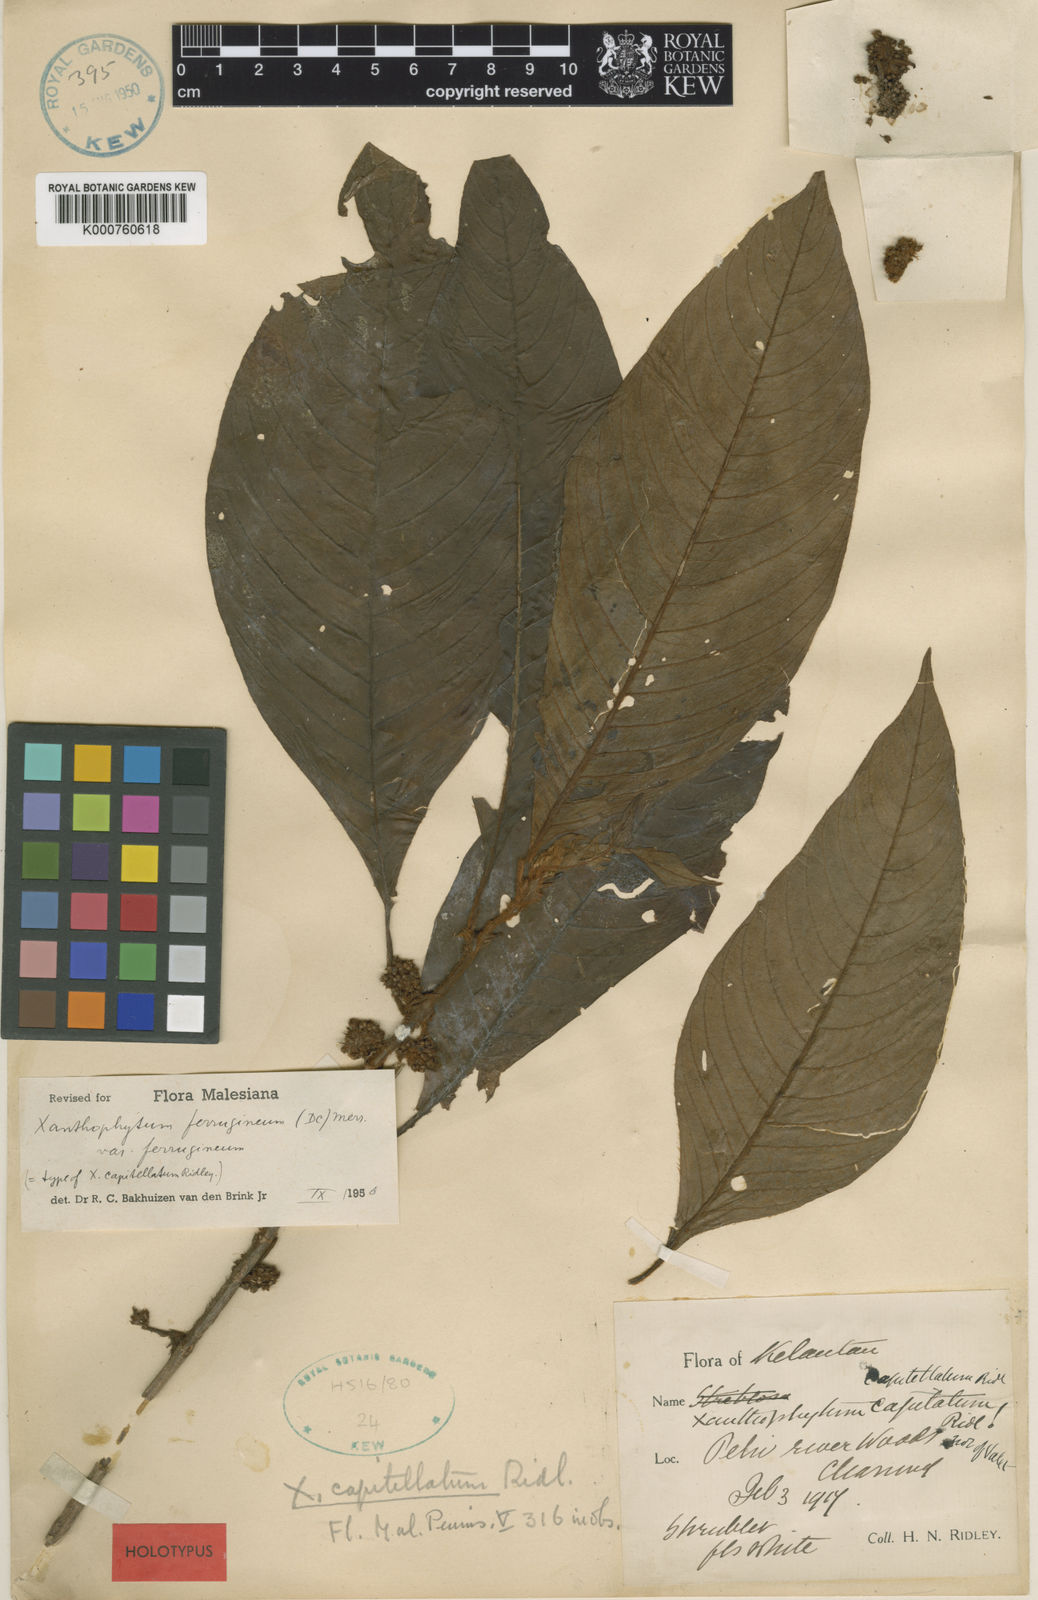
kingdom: Plantae
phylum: Tracheophyta
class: Magnoliopsida
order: Gentianales
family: Rubiaceae
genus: Xanthophytum
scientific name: Xanthophytum capitellatum
